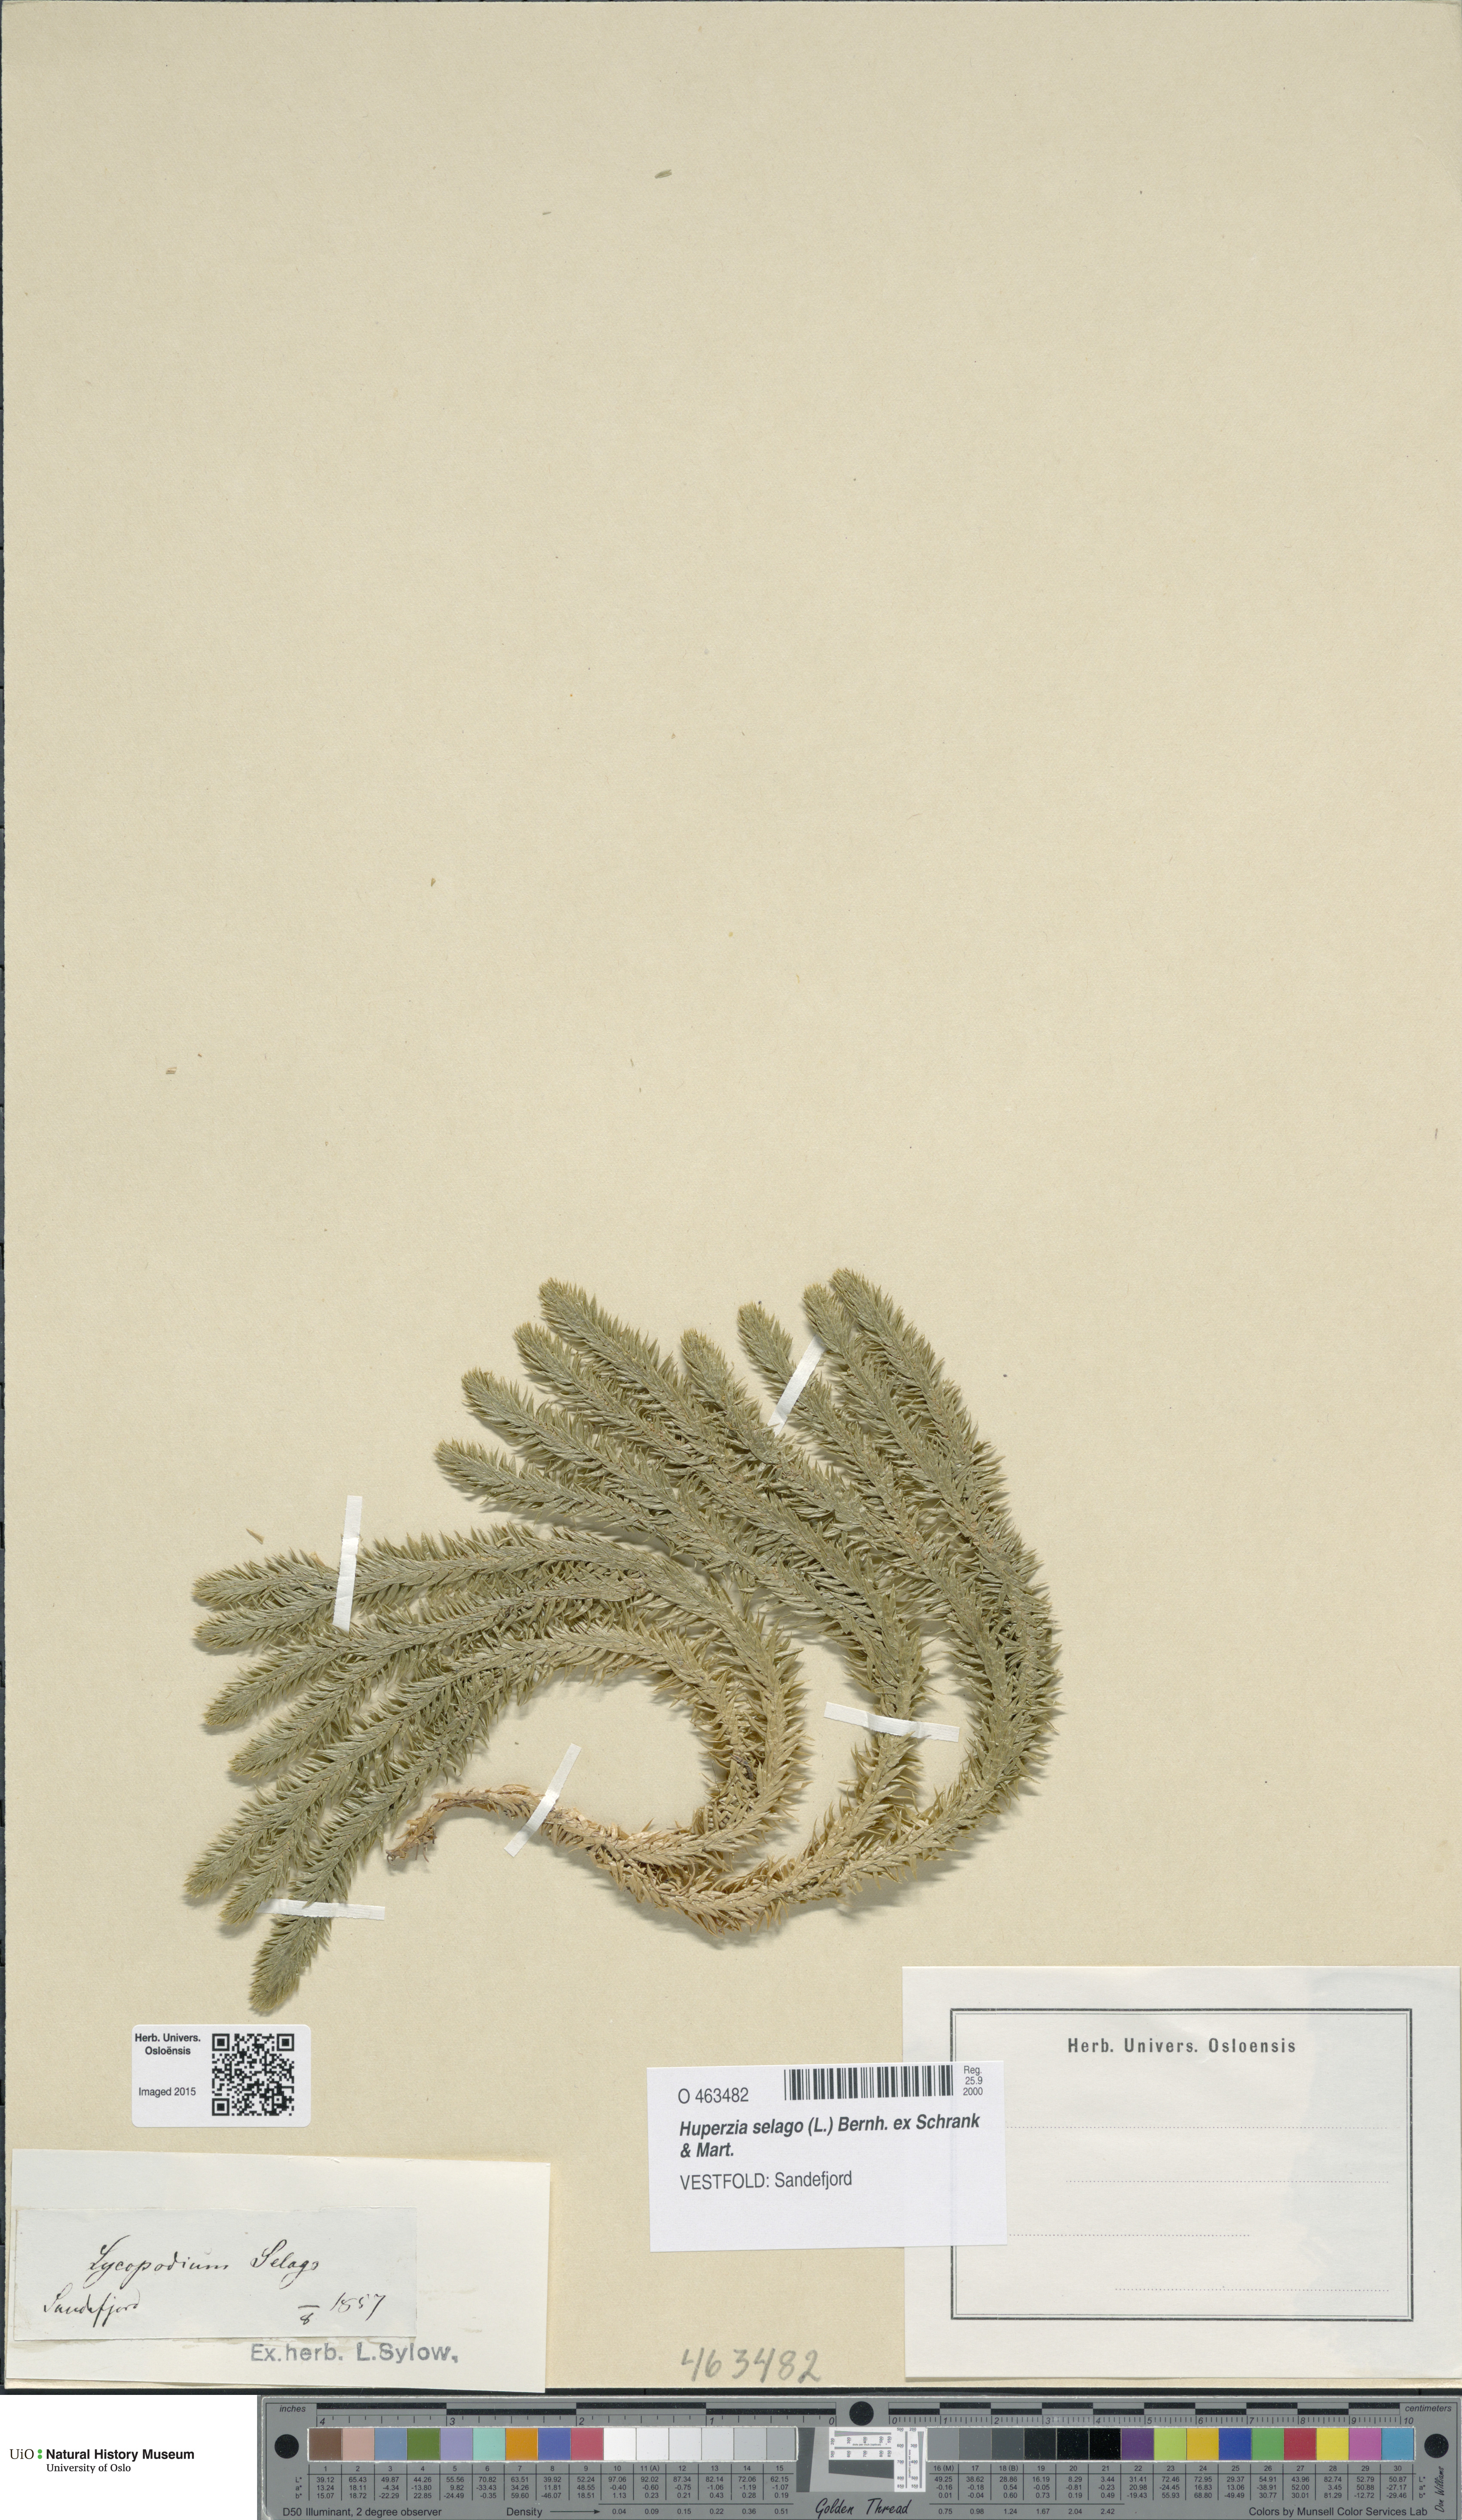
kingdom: Plantae
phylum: Tracheophyta
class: Lycopodiopsida
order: Lycopodiales
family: Lycopodiaceae
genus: Huperzia
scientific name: Huperzia selago
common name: Northern firmoss
